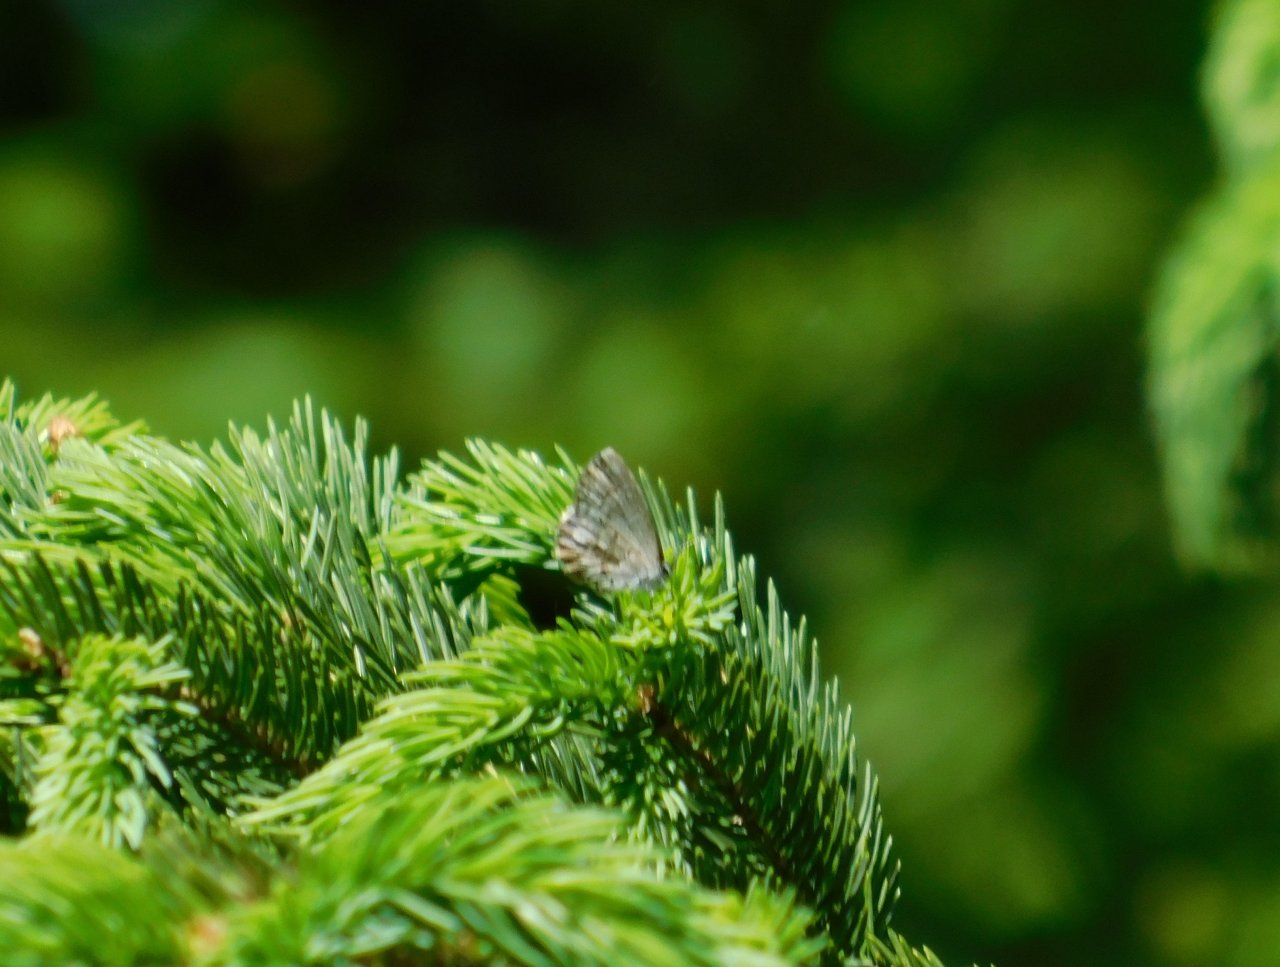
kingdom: Animalia
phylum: Arthropoda
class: Insecta
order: Lepidoptera
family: Lycaenidae
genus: Celastrina
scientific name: Celastrina lucia
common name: Northern Spring Azure
